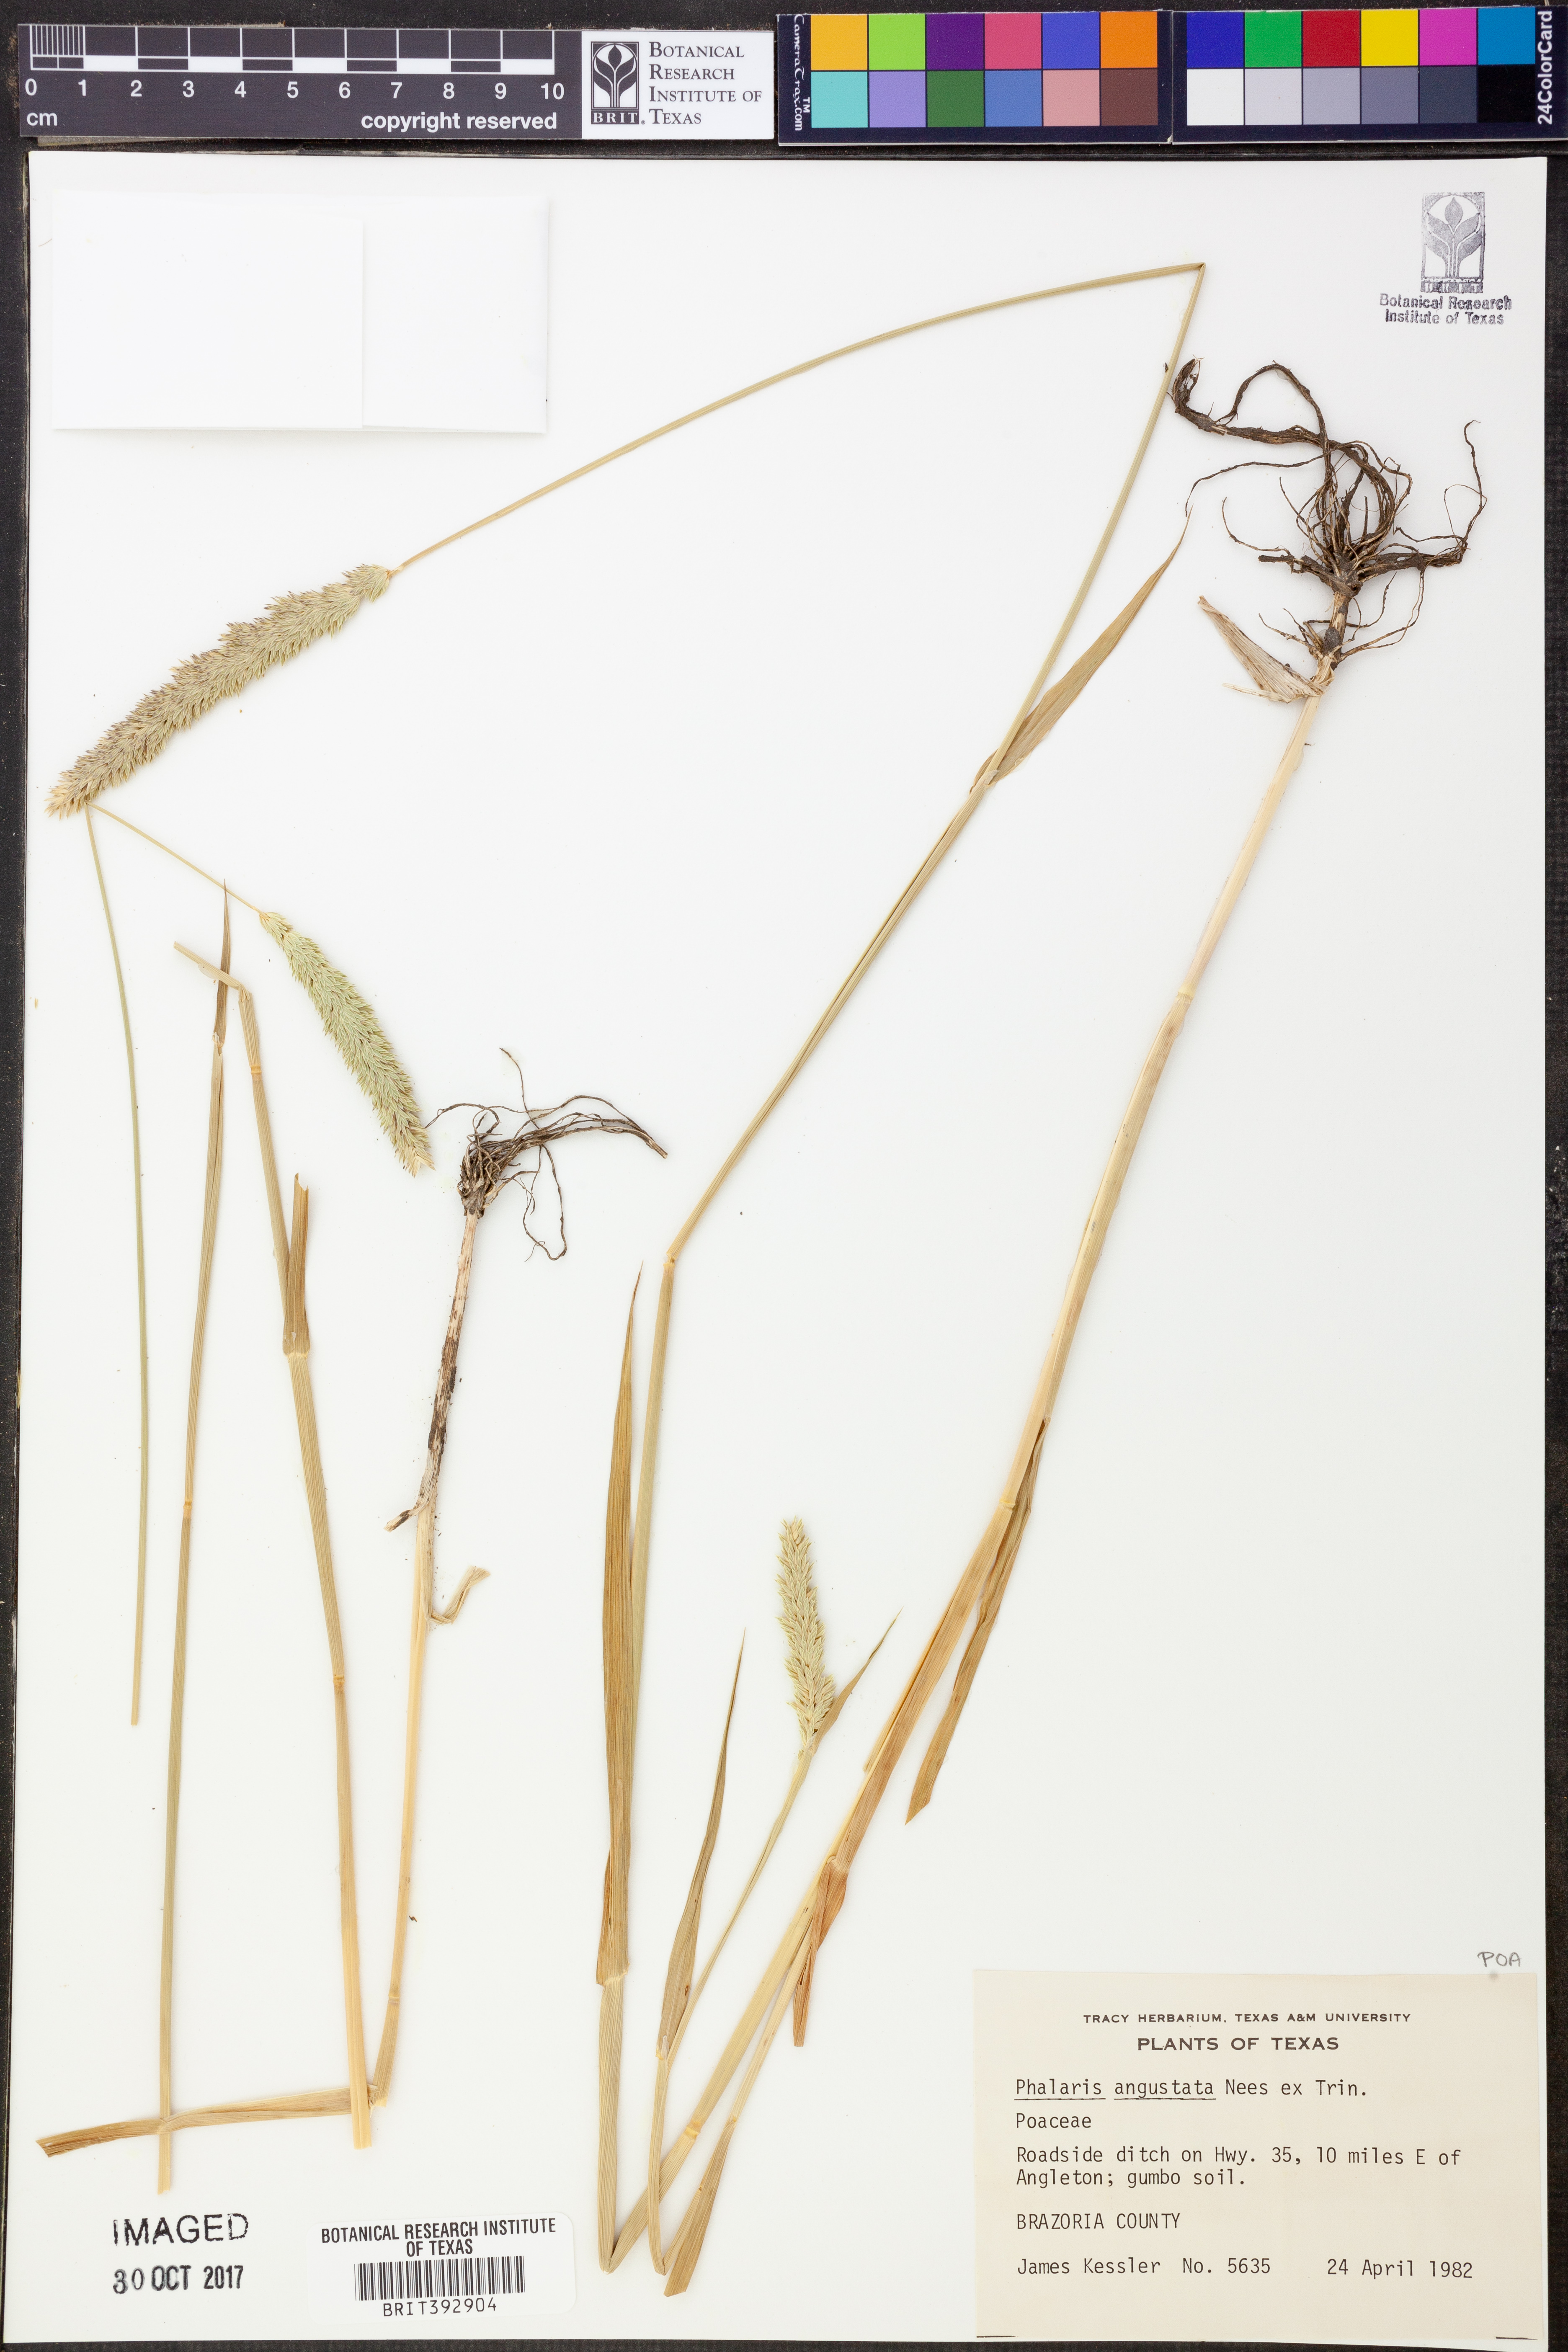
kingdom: Plantae
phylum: Tracheophyta
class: Liliopsida
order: Poales
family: Poaceae
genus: Phalaris
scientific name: Phalaris angusta
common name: Narrow canary grass
